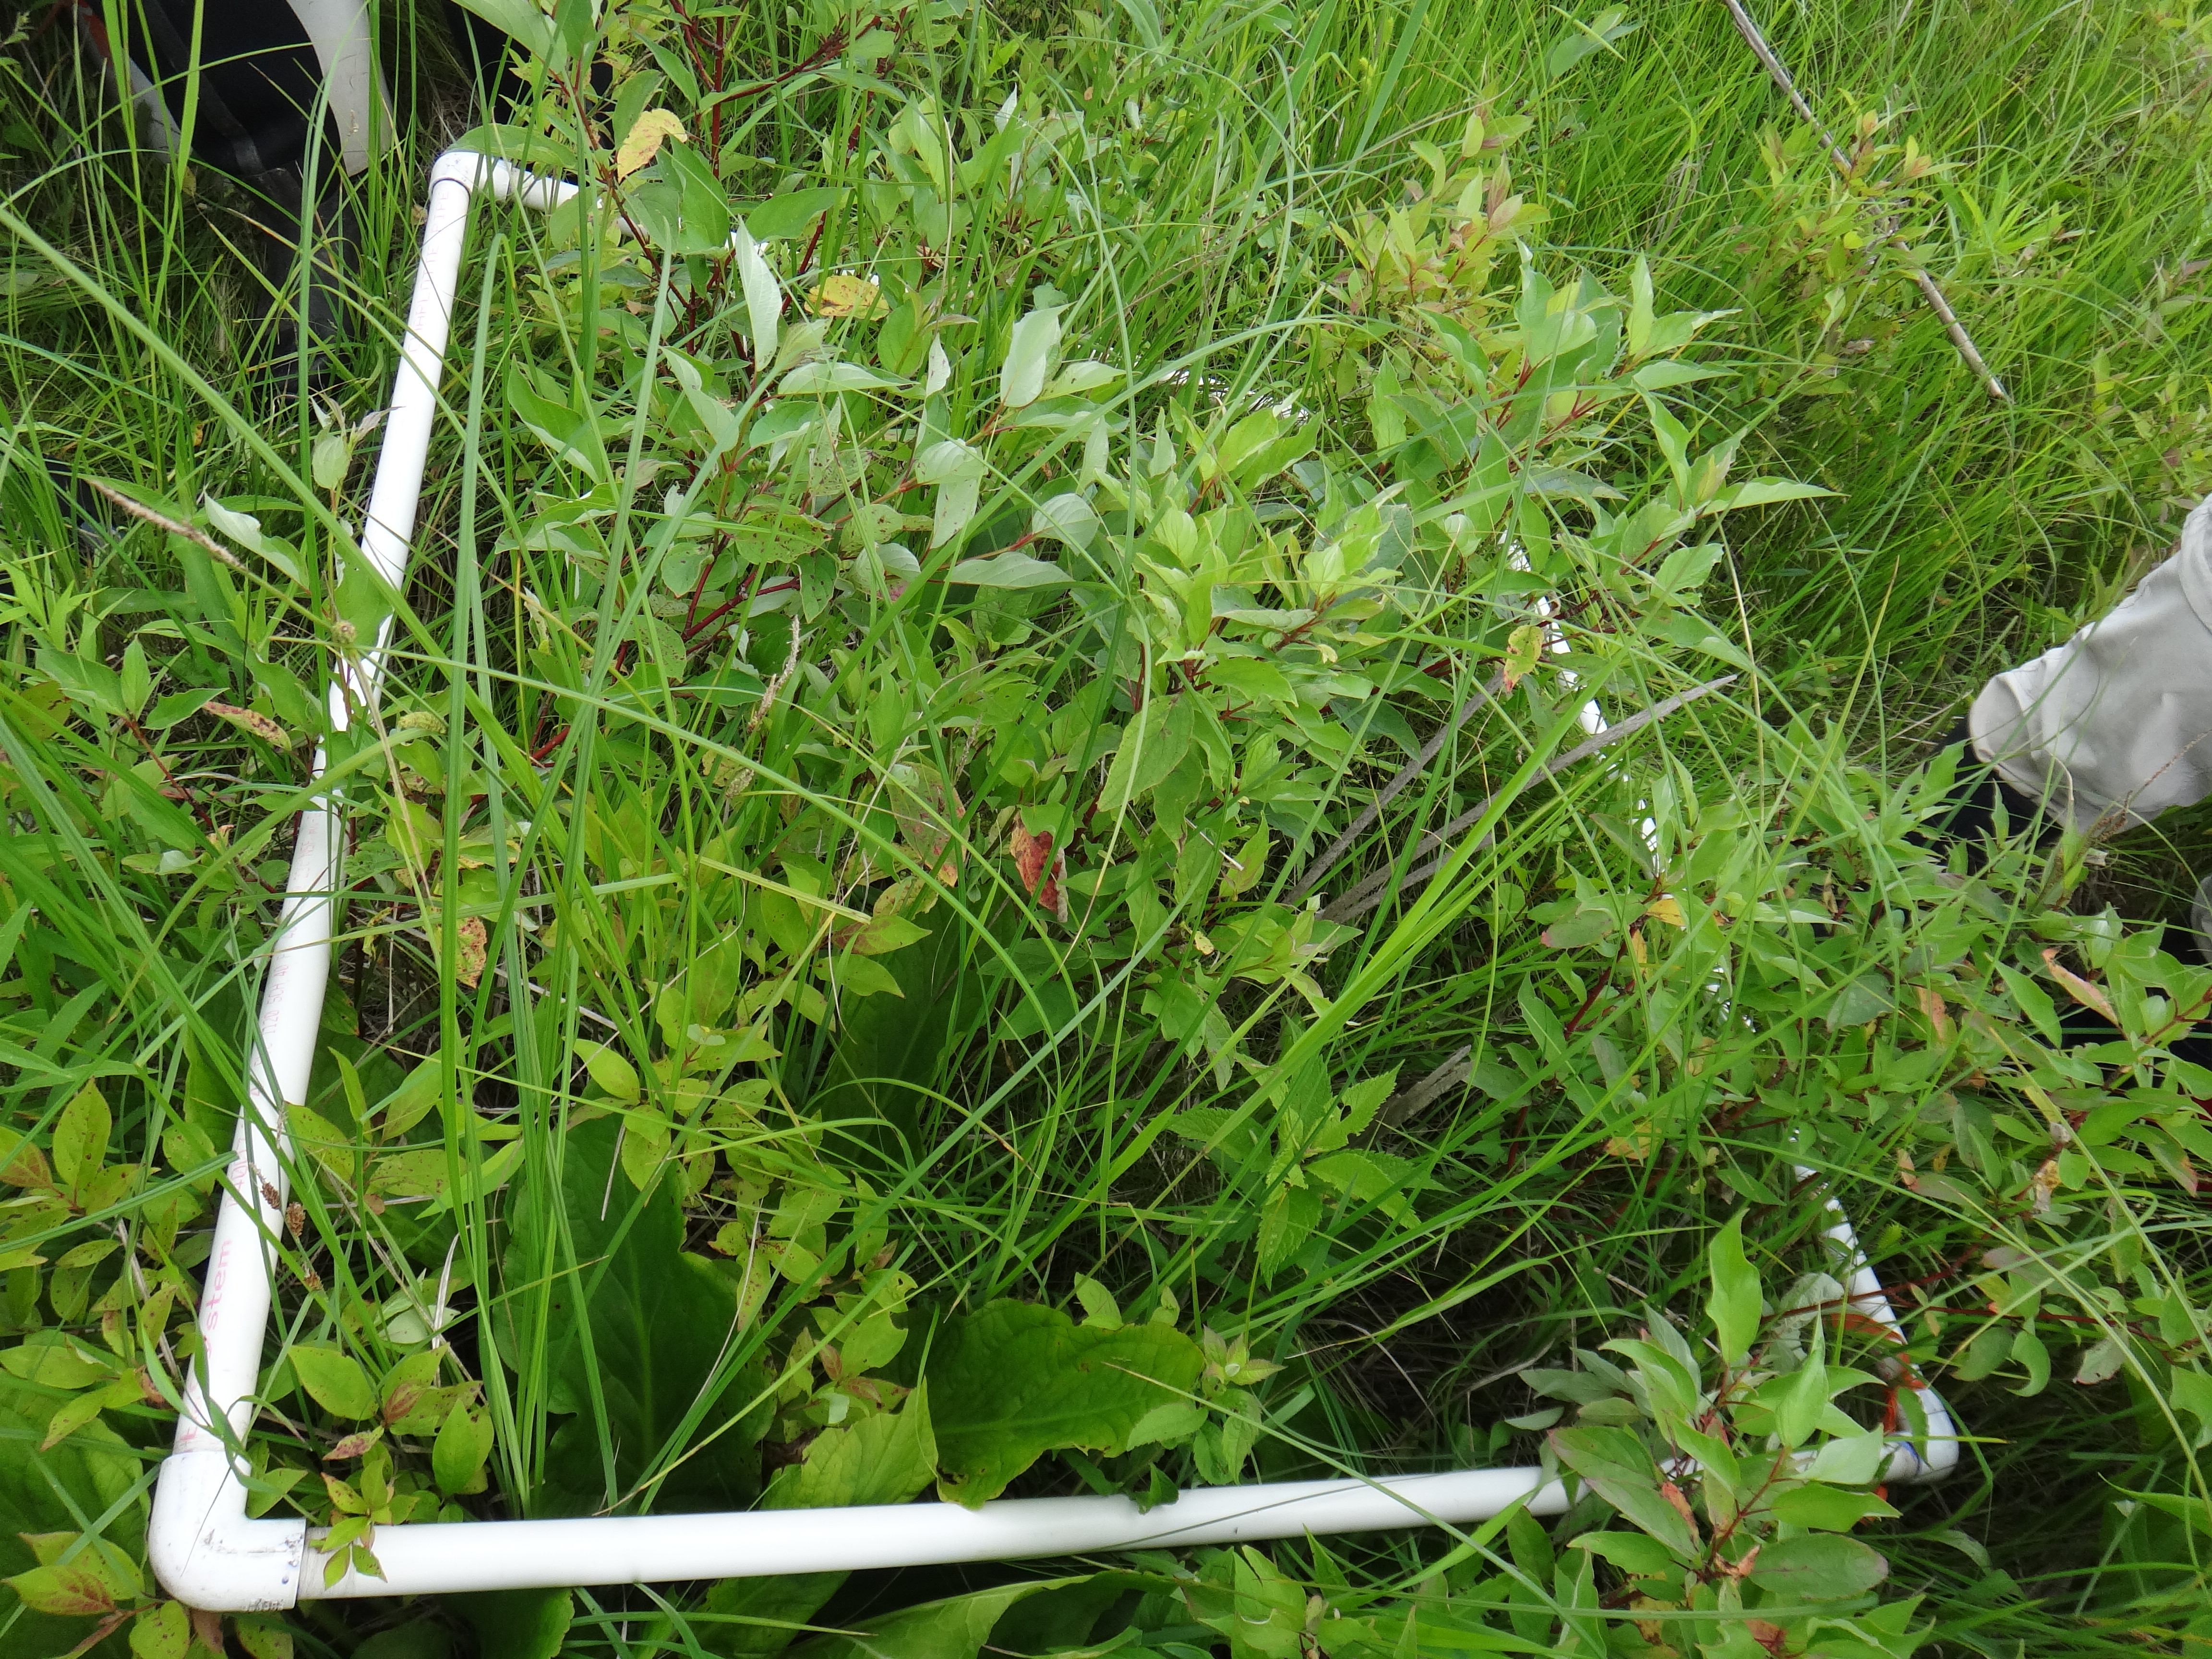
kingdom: Plantae
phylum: Tracheophyta
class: Liliopsida
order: Poales
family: Juncaceae
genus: Juncus
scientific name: Juncus dudleyi
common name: Dudley's rush
